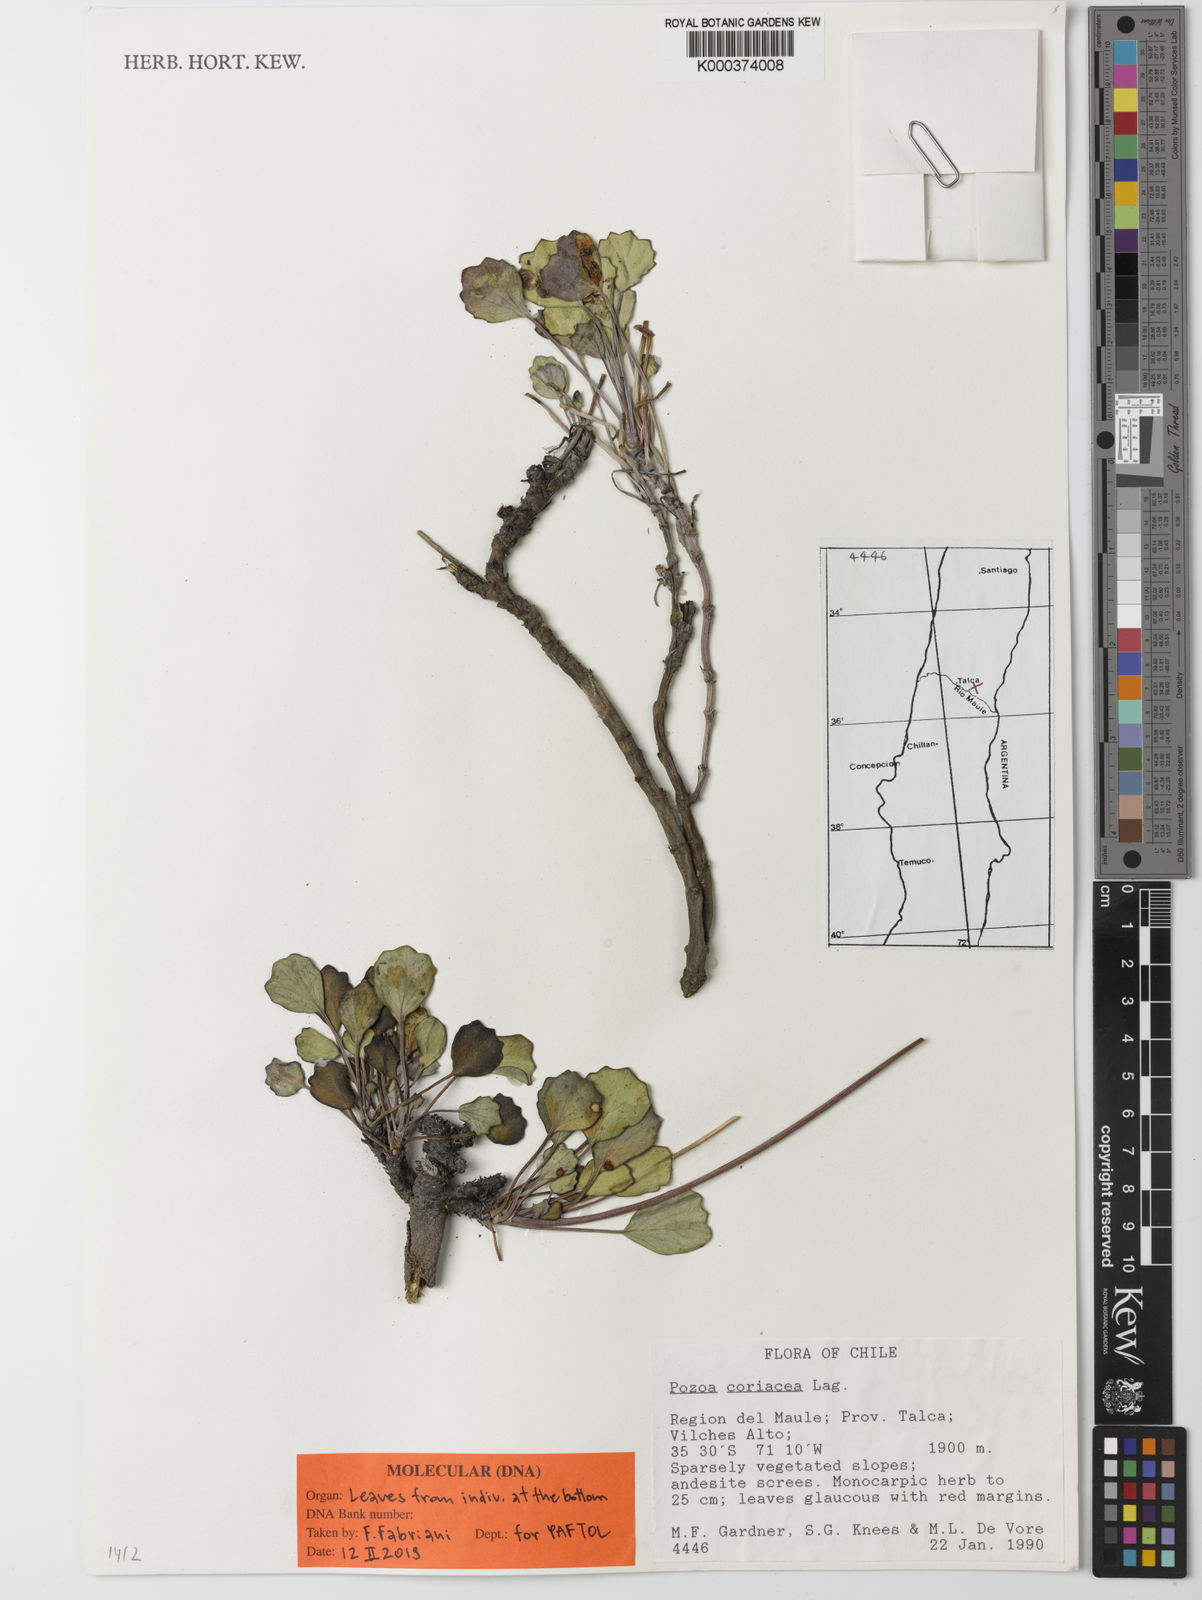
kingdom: Plantae
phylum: Tracheophyta
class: Magnoliopsida
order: Apiales
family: Apiaceae
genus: Pozoa
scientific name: Pozoa
